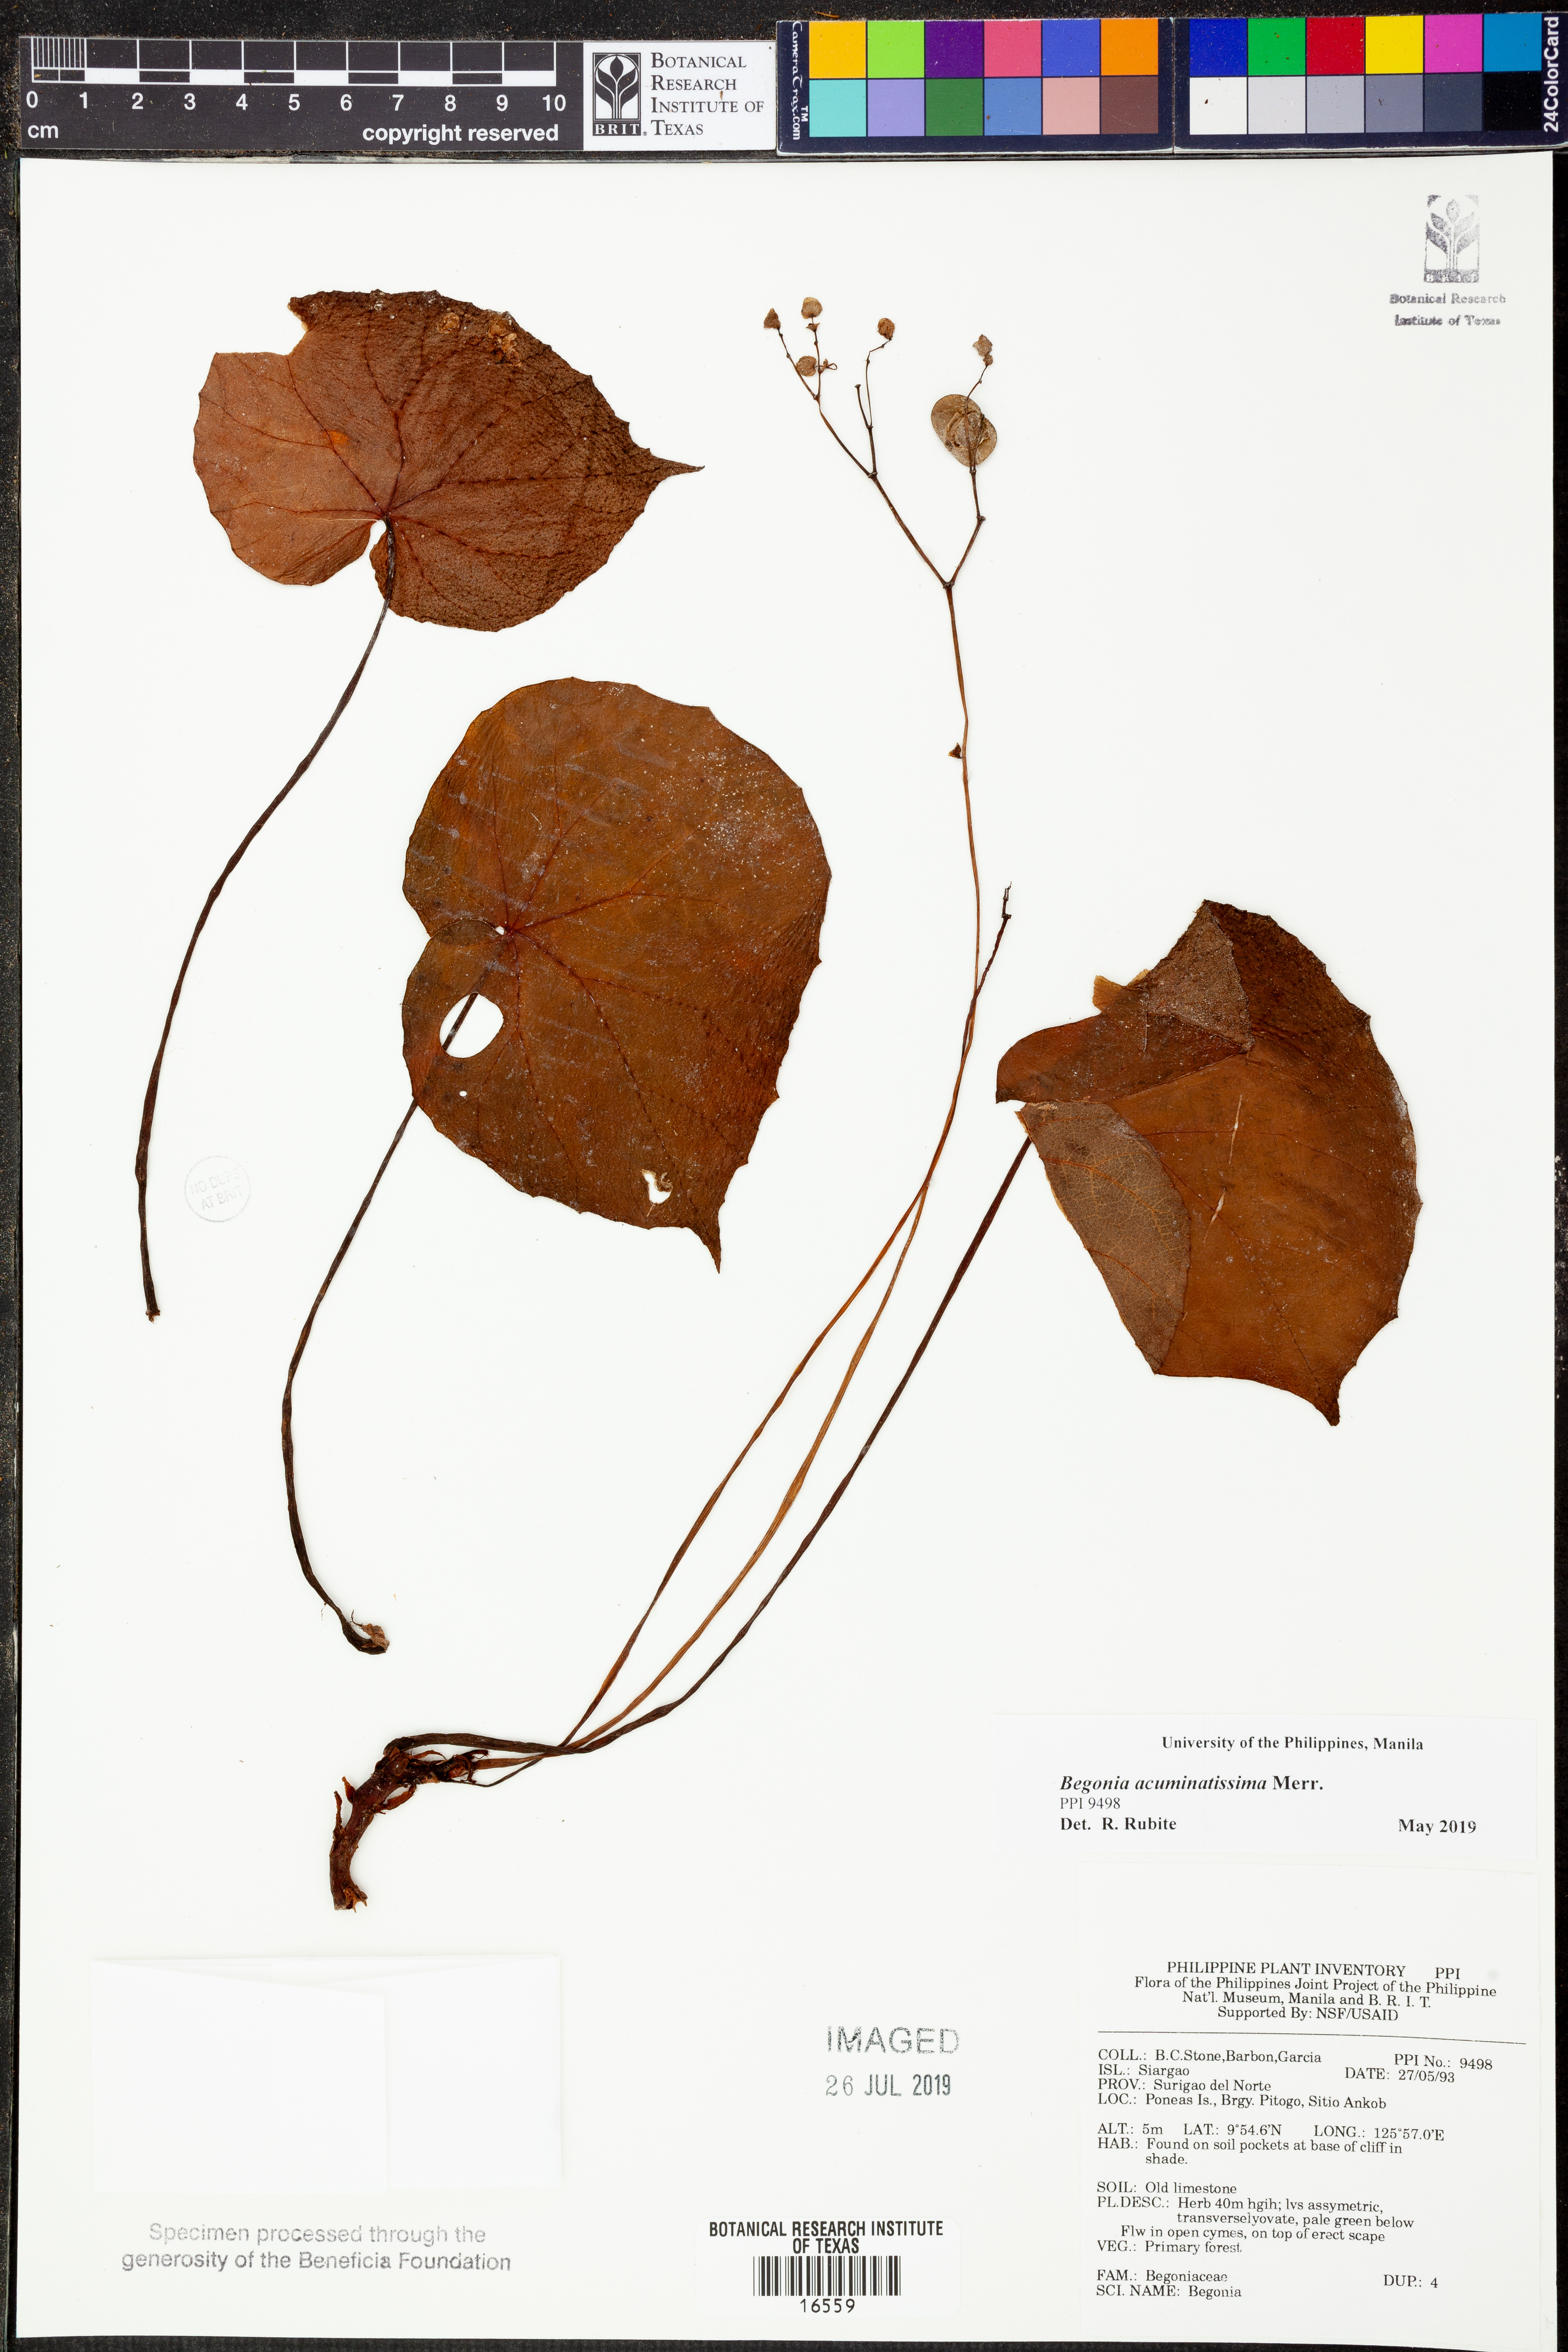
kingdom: Plantae
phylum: Tracheophyta
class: Magnoliopsida
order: Cucurbitales
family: Begoniaceae
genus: Begonia
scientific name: Begonia acuminatissima
